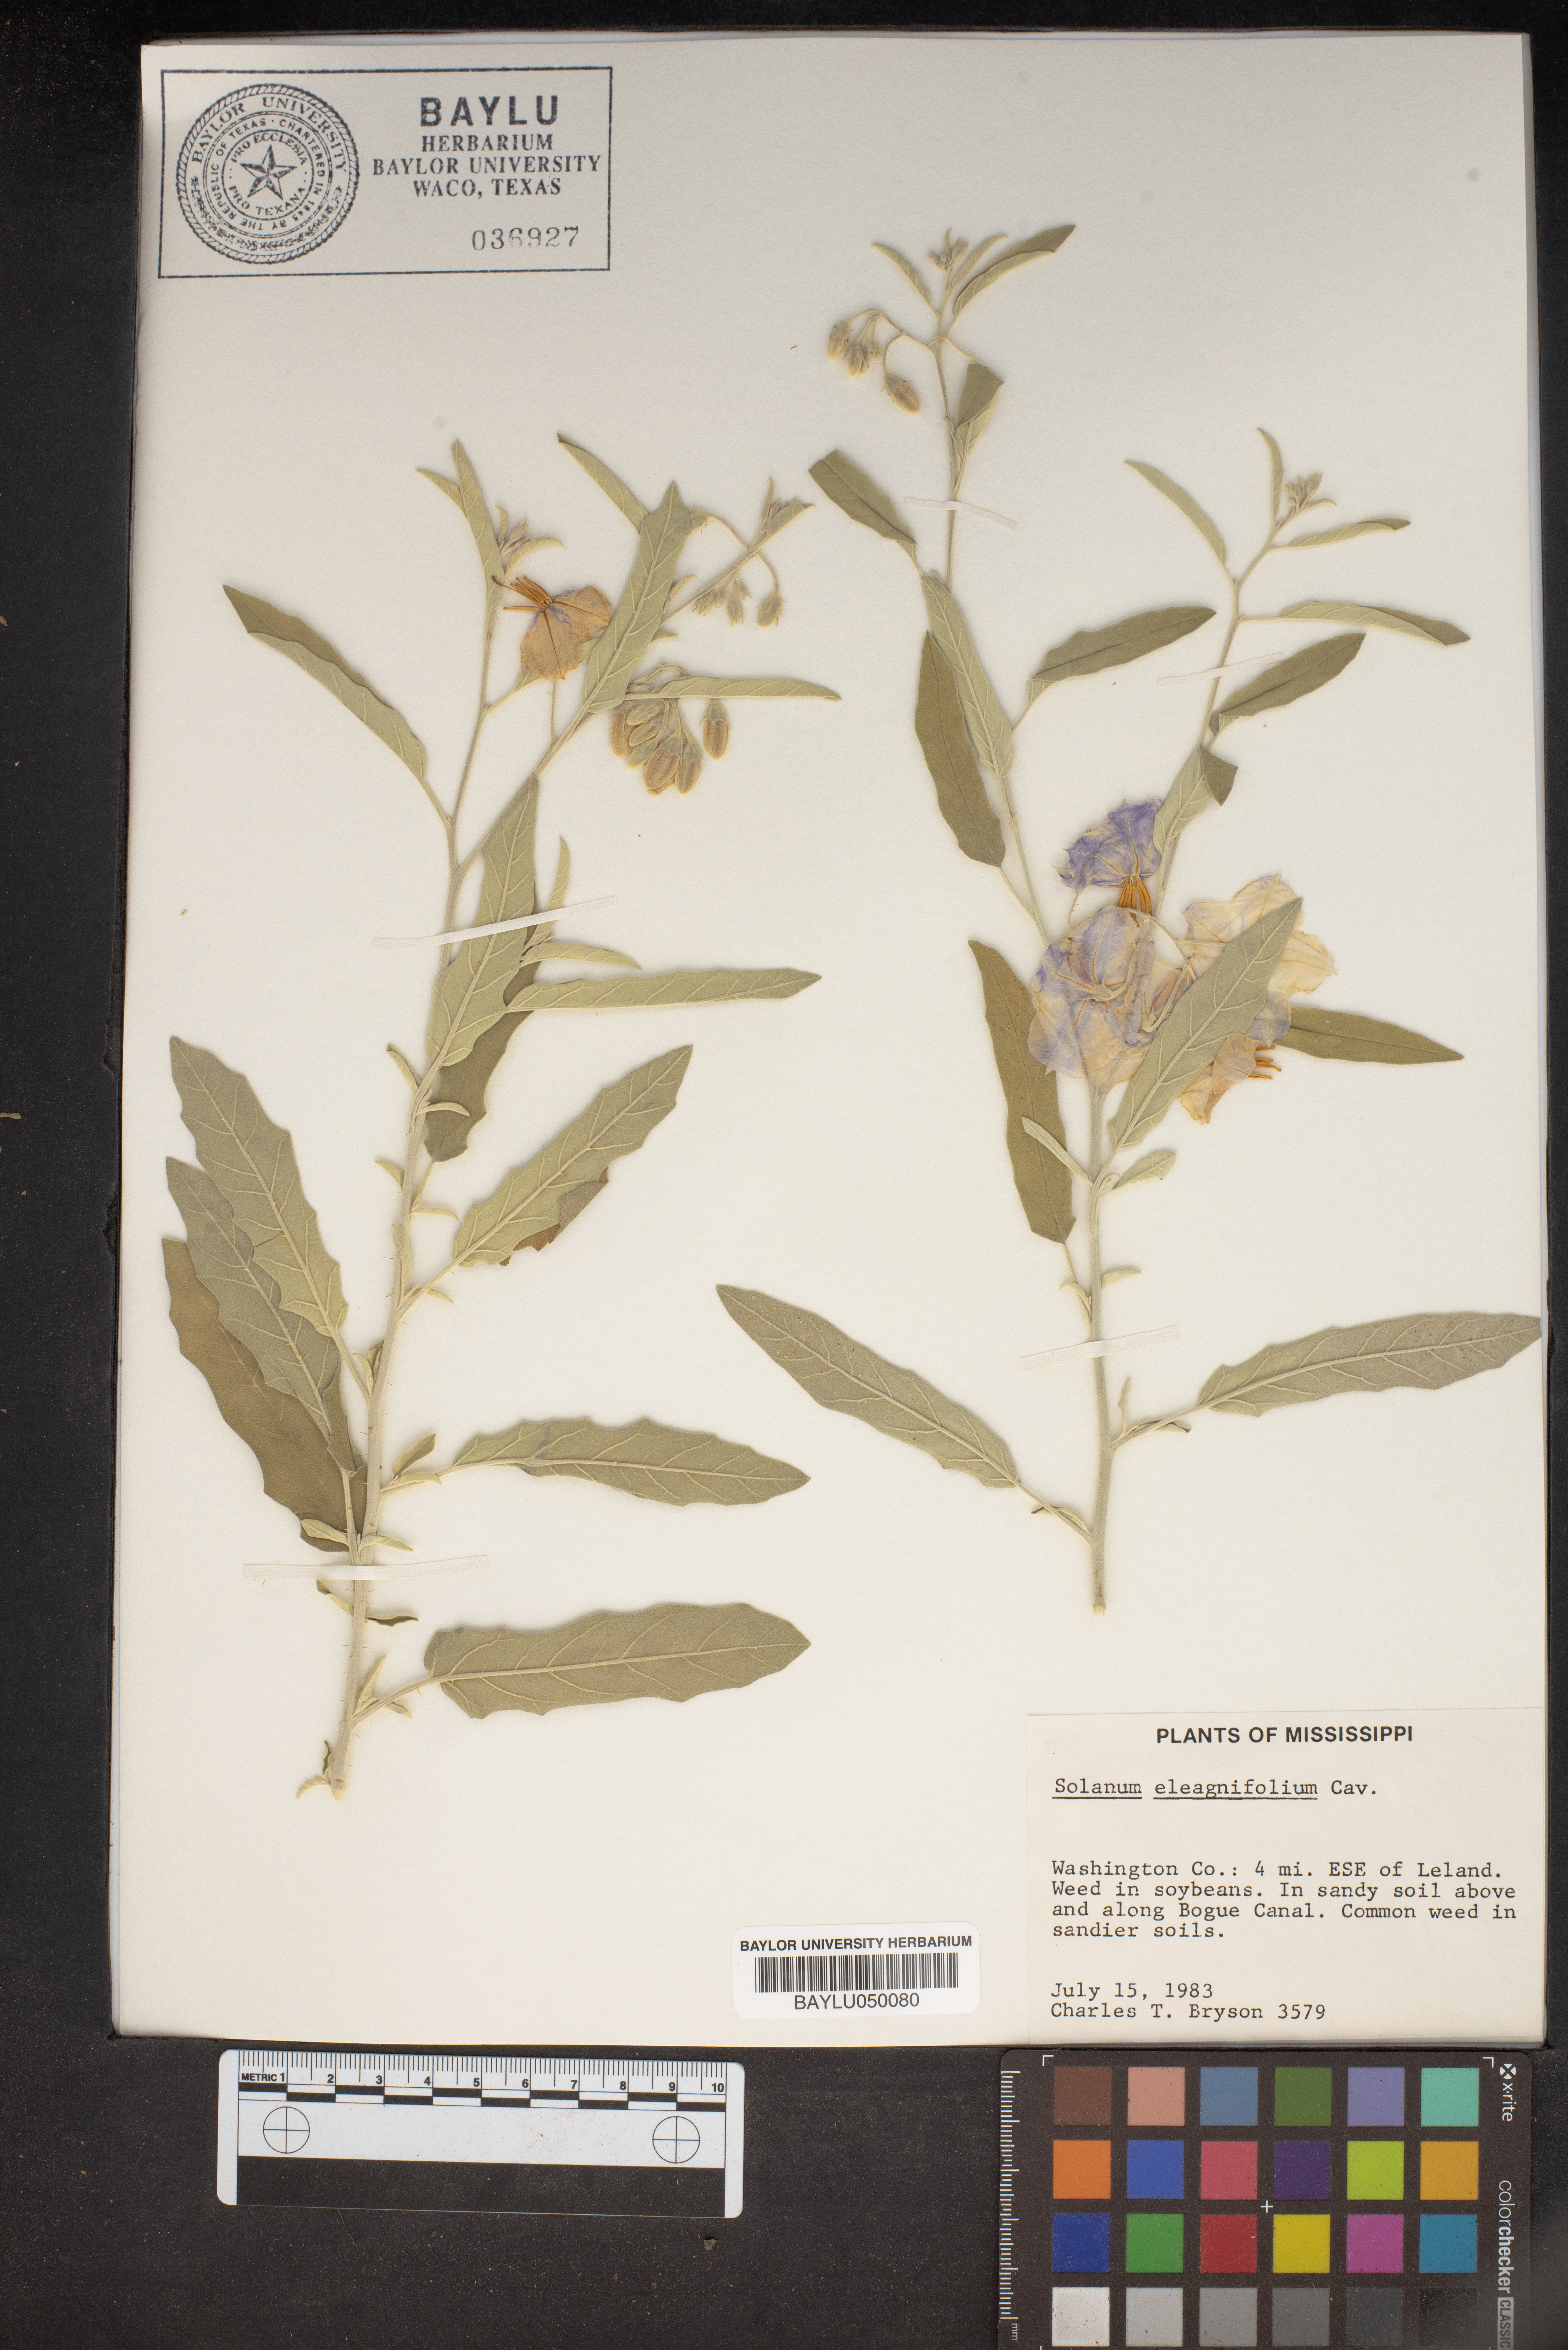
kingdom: Plantae
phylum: Tracheophyta
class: Magnoliopsida
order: Solanales
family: Solanaceae
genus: Solanum
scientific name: Solanum elaeagnifolium
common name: Silverleaf nightshade
